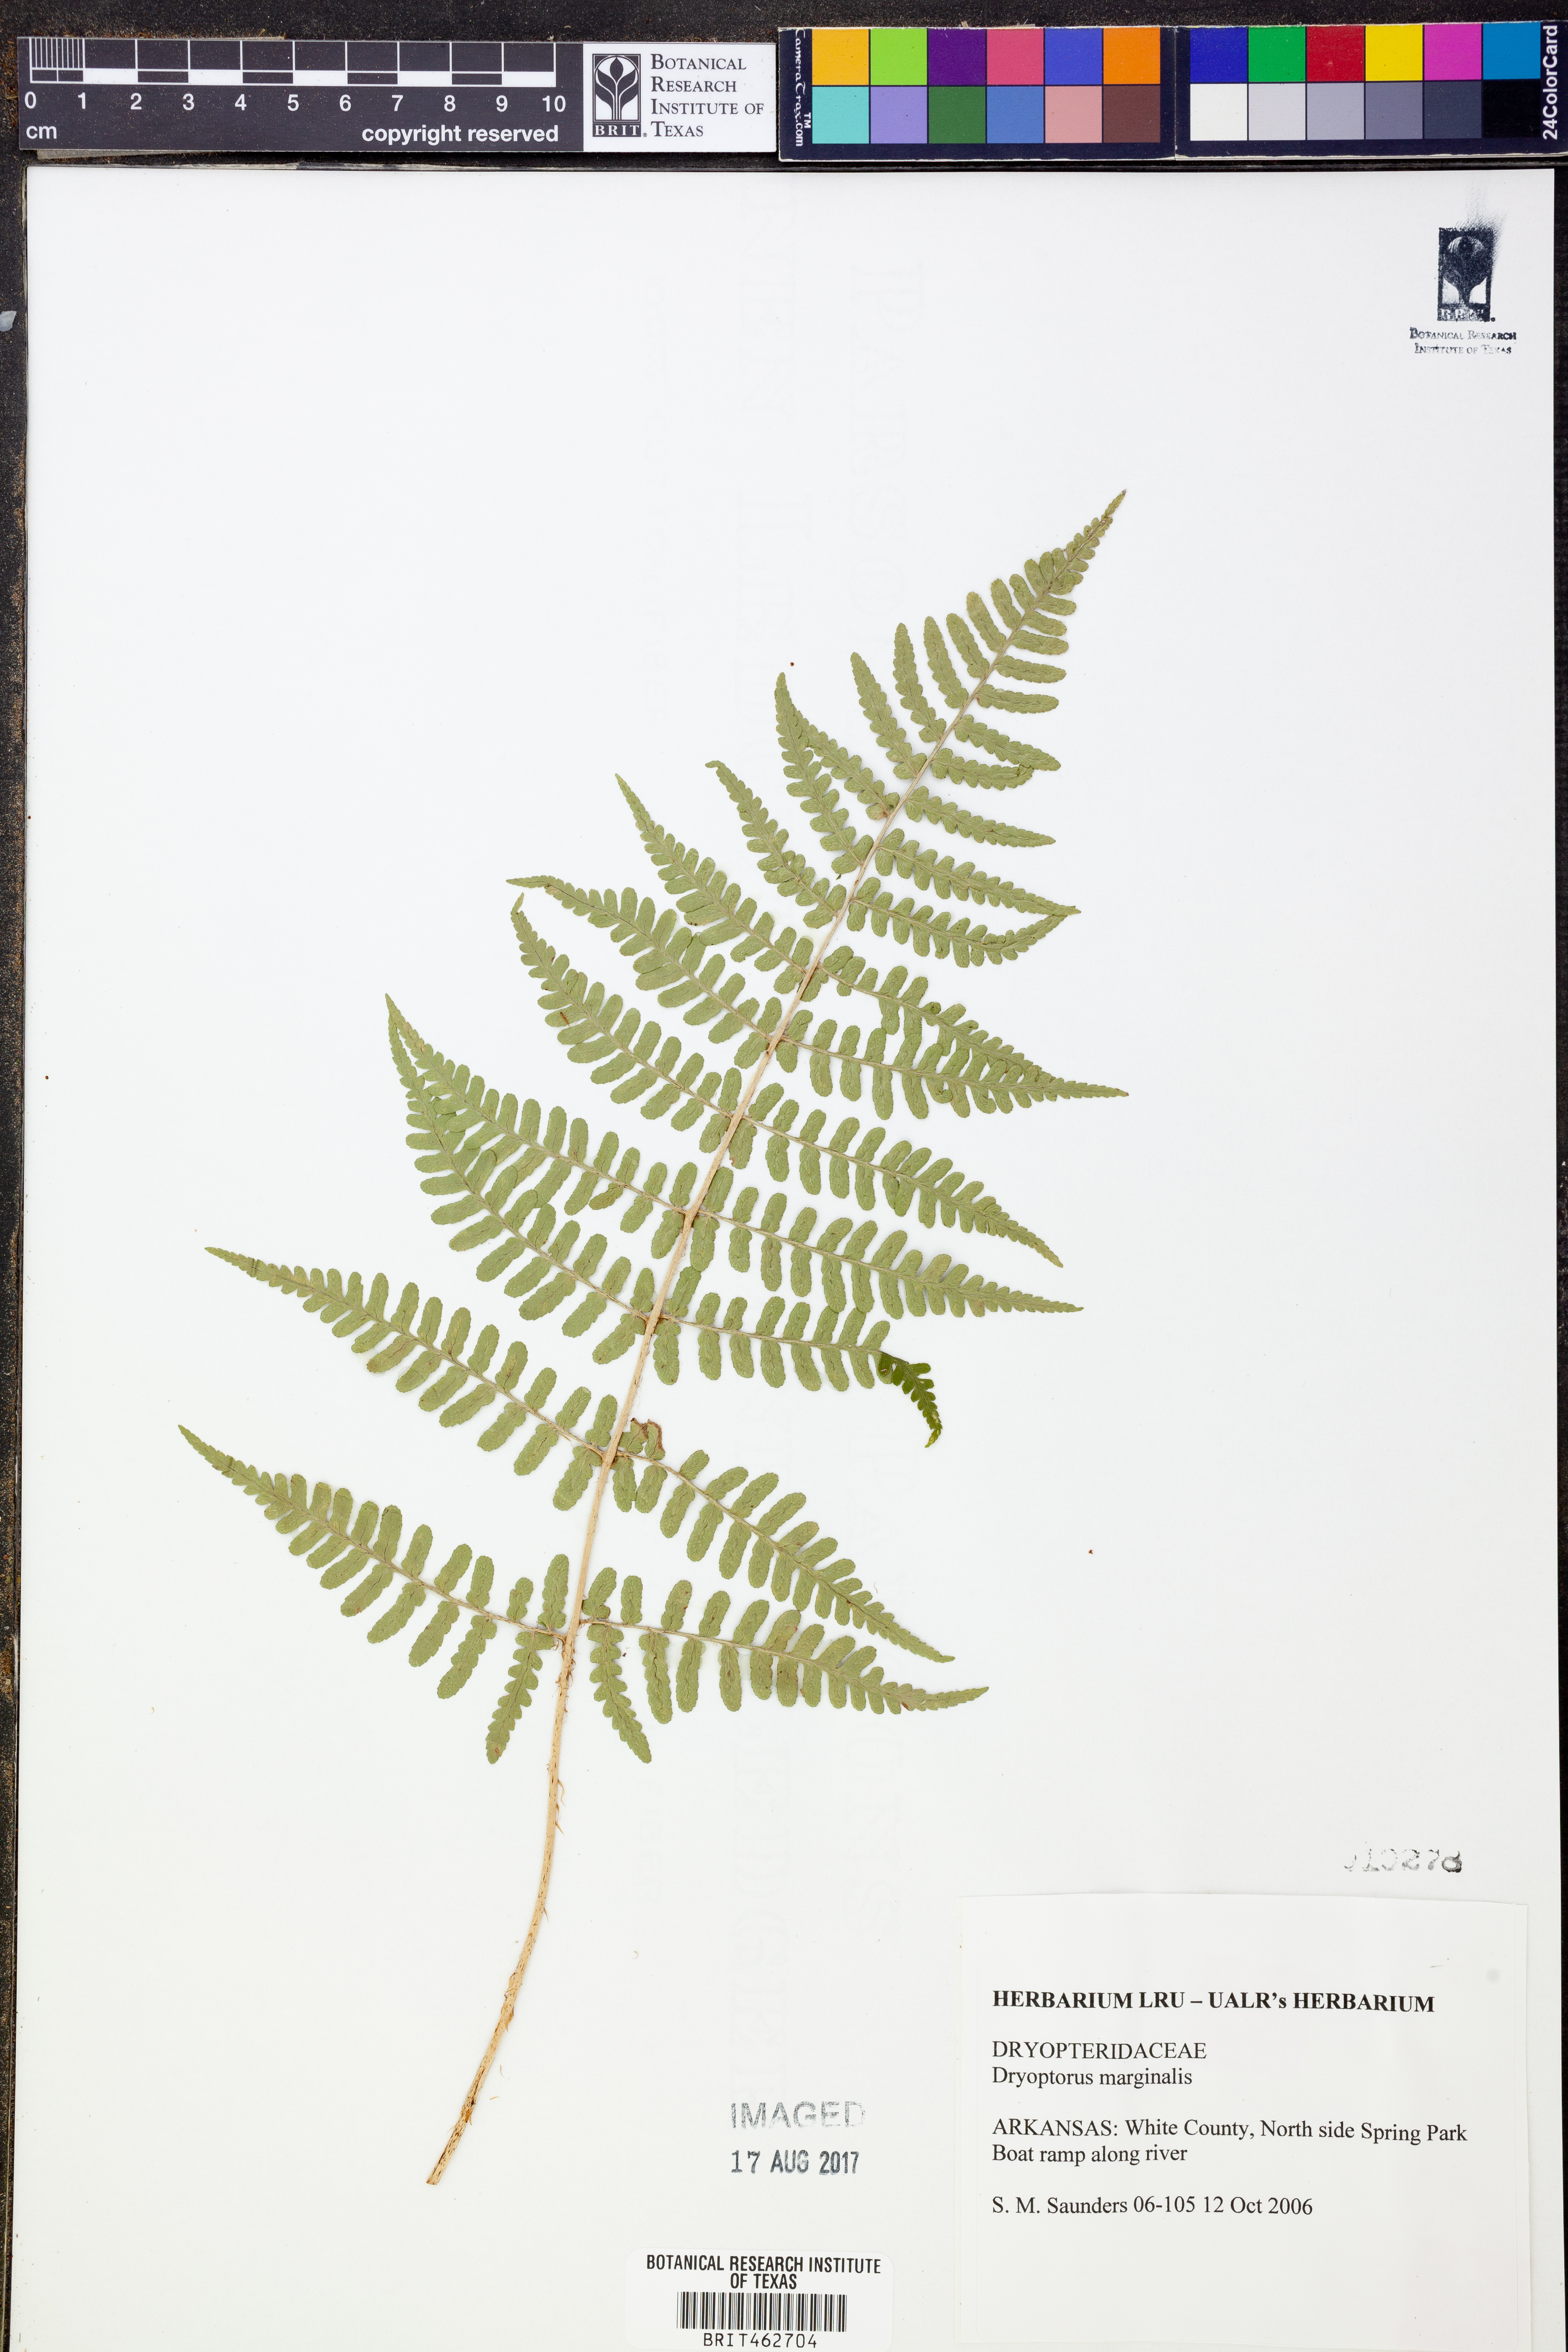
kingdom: Plantae
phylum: Tracheophyta
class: Polypodiopsida
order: Polypodiales
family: Dryopteridaceae
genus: Dryopteris
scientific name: Dryopteris marginalis
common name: Marginal wood fern
